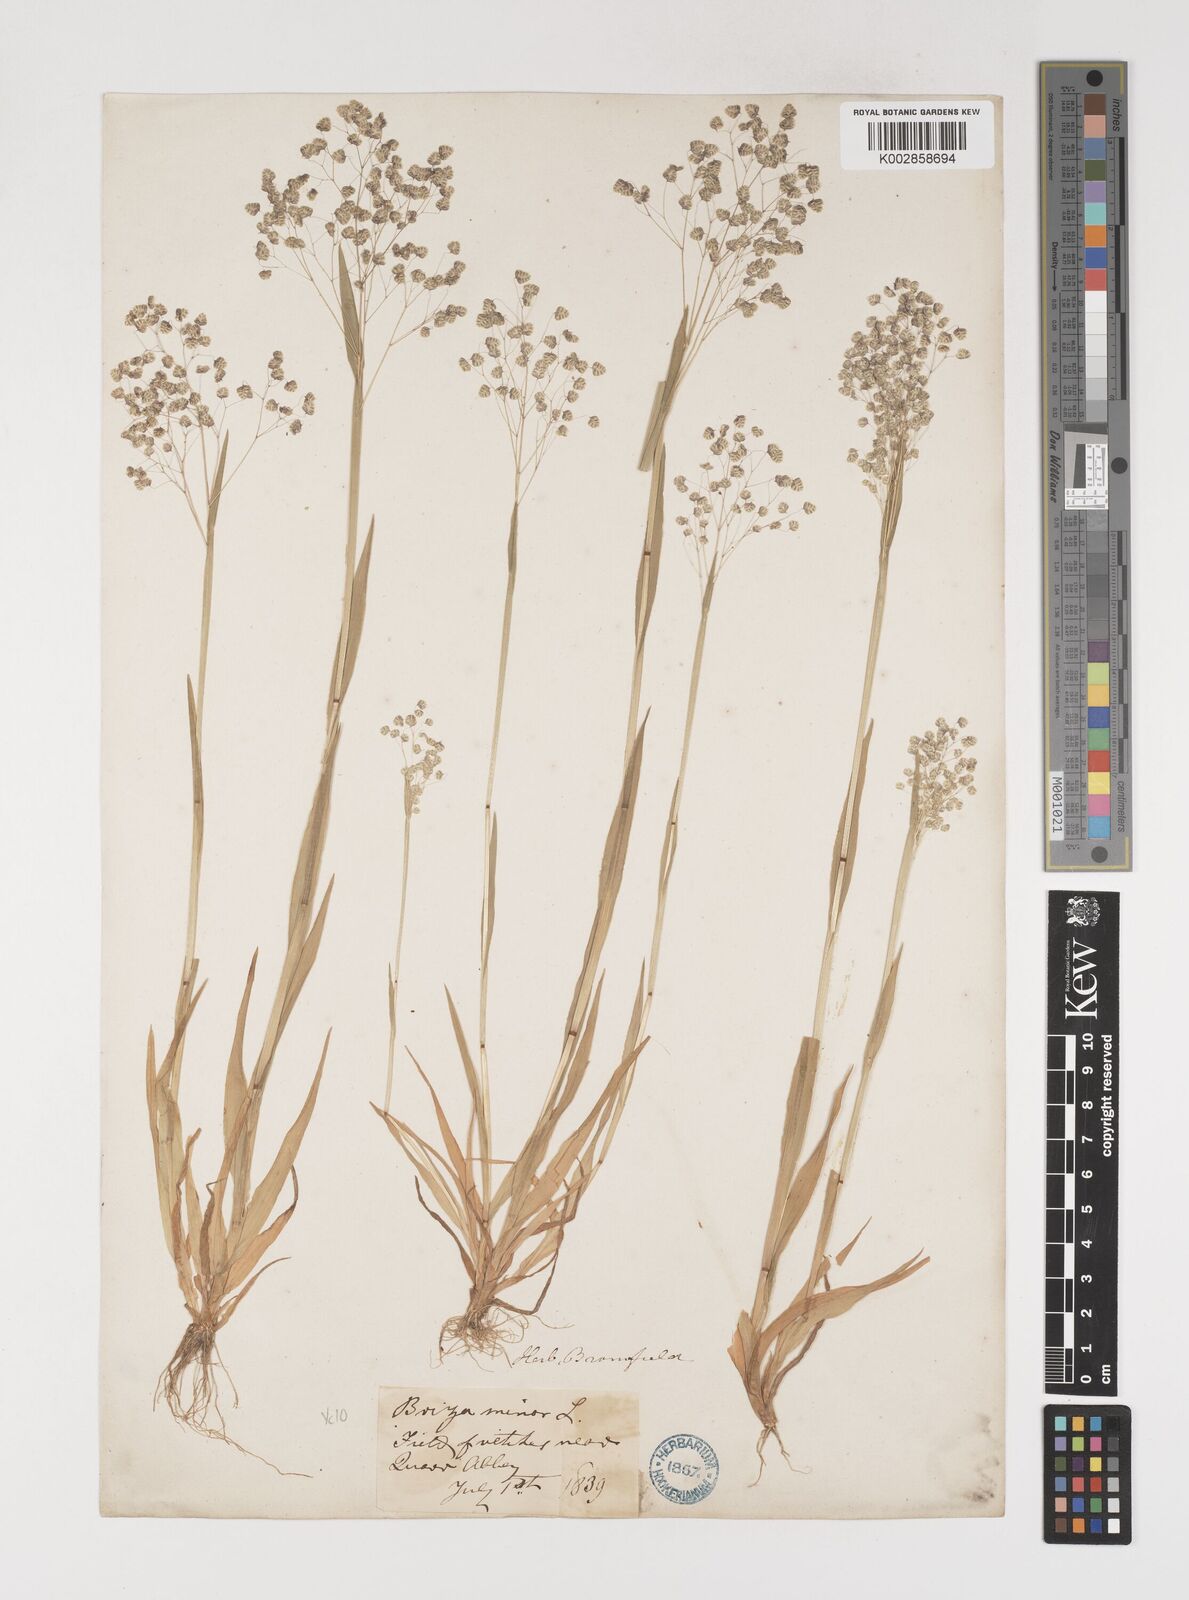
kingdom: Plantae
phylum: Tracheophyta
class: Liliopsida
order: Poales
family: Poaceae
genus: Briza
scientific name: Briza minor
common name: Lesser quaking-grass
